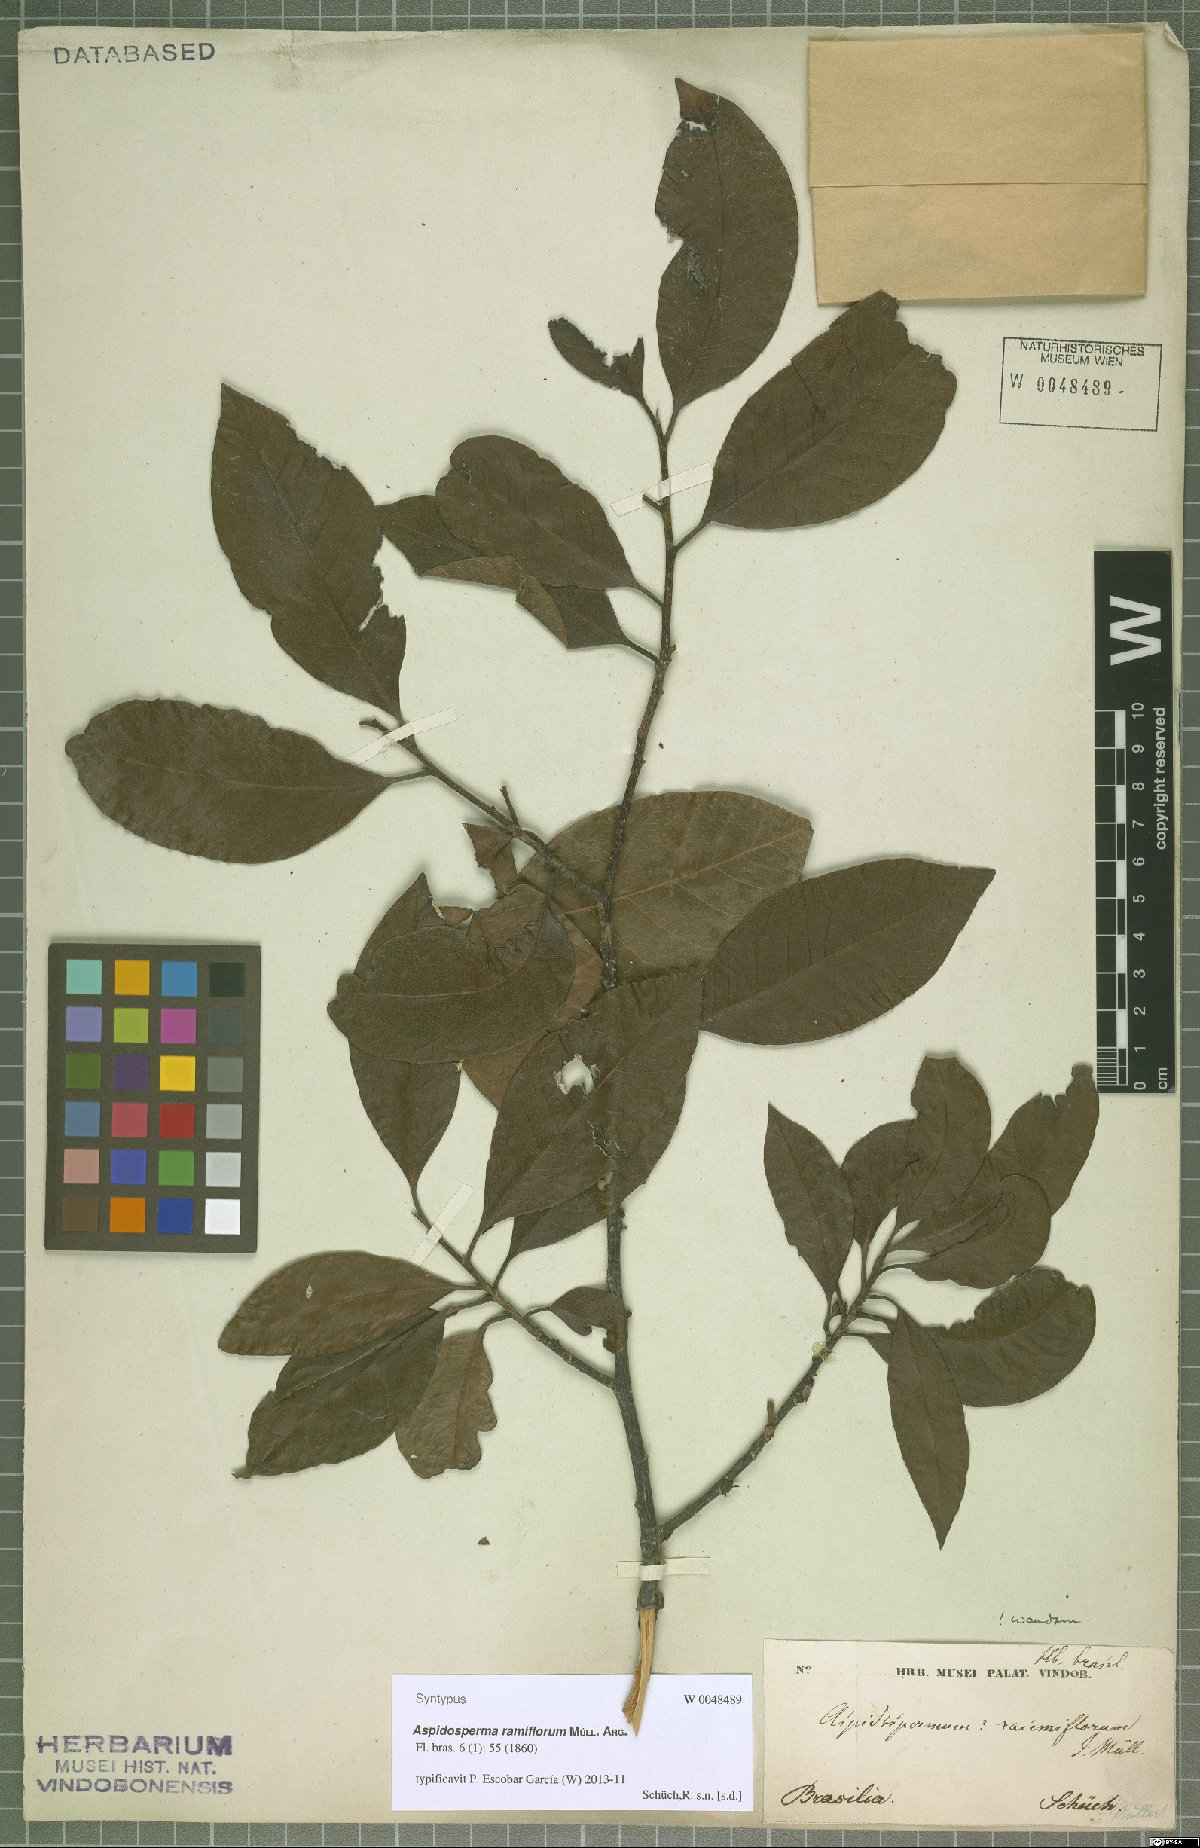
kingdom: Plantae
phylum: Tracheophyta
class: Magnoliopsida
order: Gentianales
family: Apocynaceae
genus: Aspidosperma
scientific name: Aspidosperma ramiflorum
